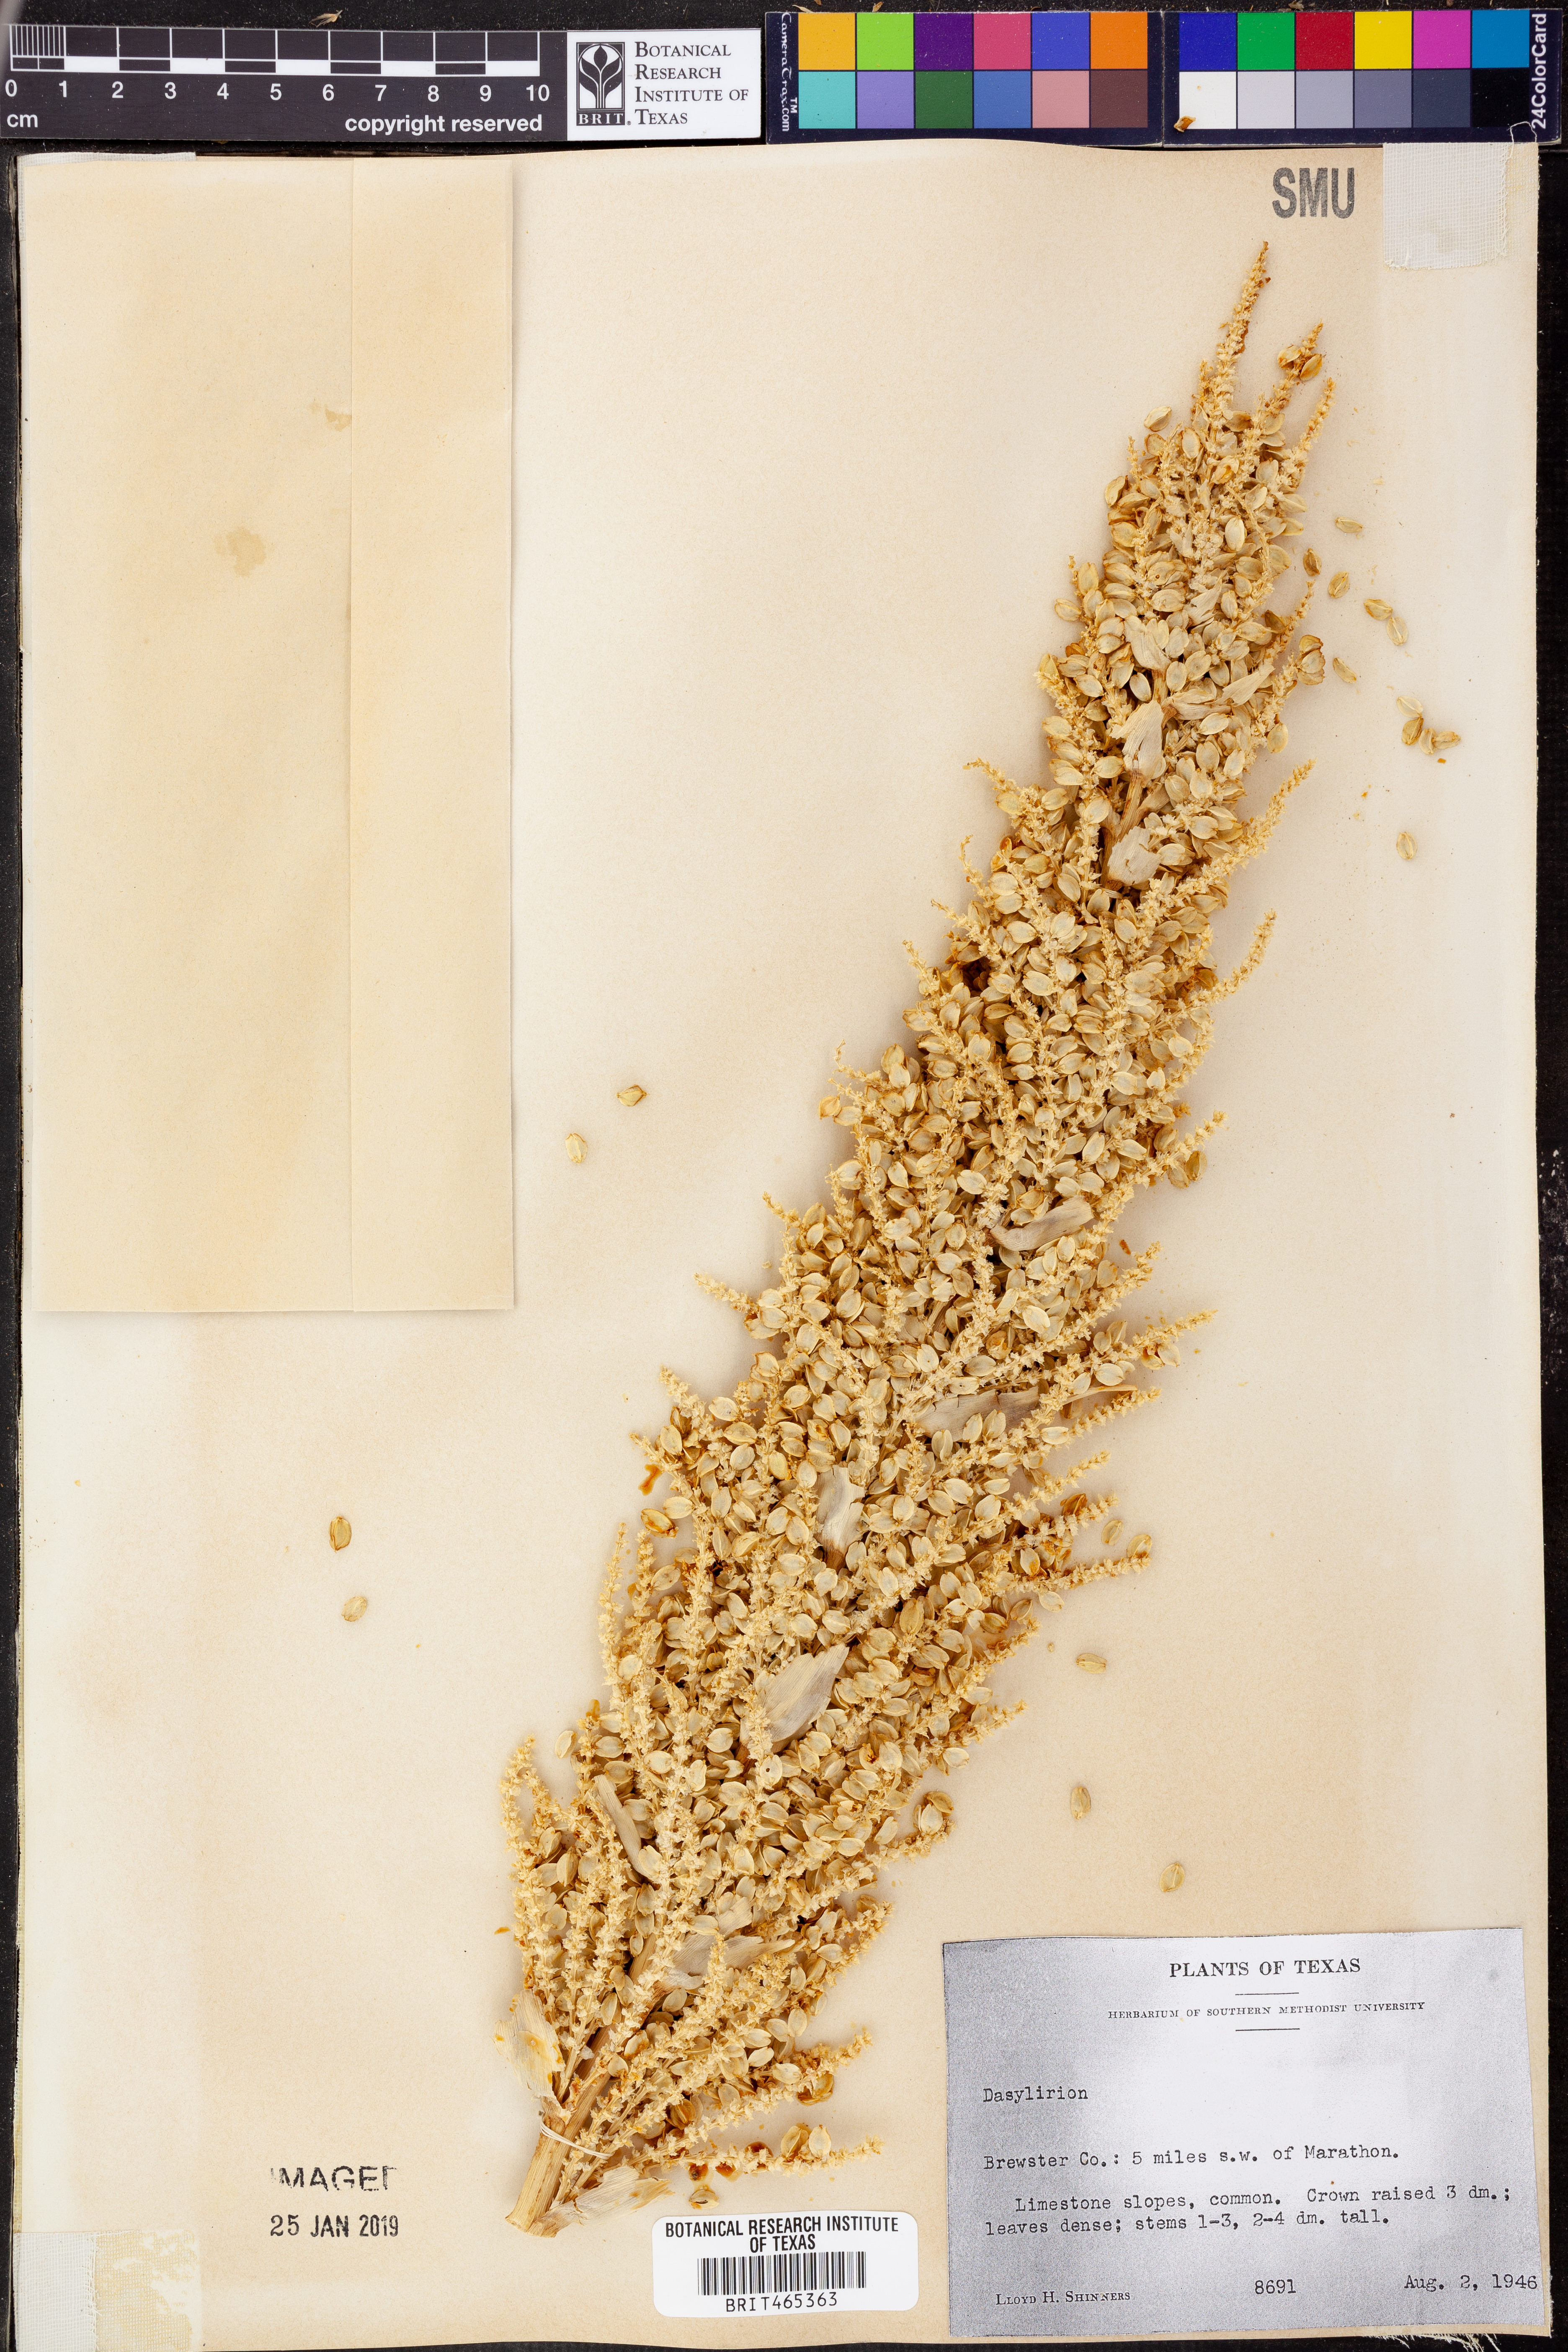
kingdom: Plantae
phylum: Tracheophyta
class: Liliopsida
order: Asparagales
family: Asparagaceae
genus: Dasylirion
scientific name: Dasylirion
